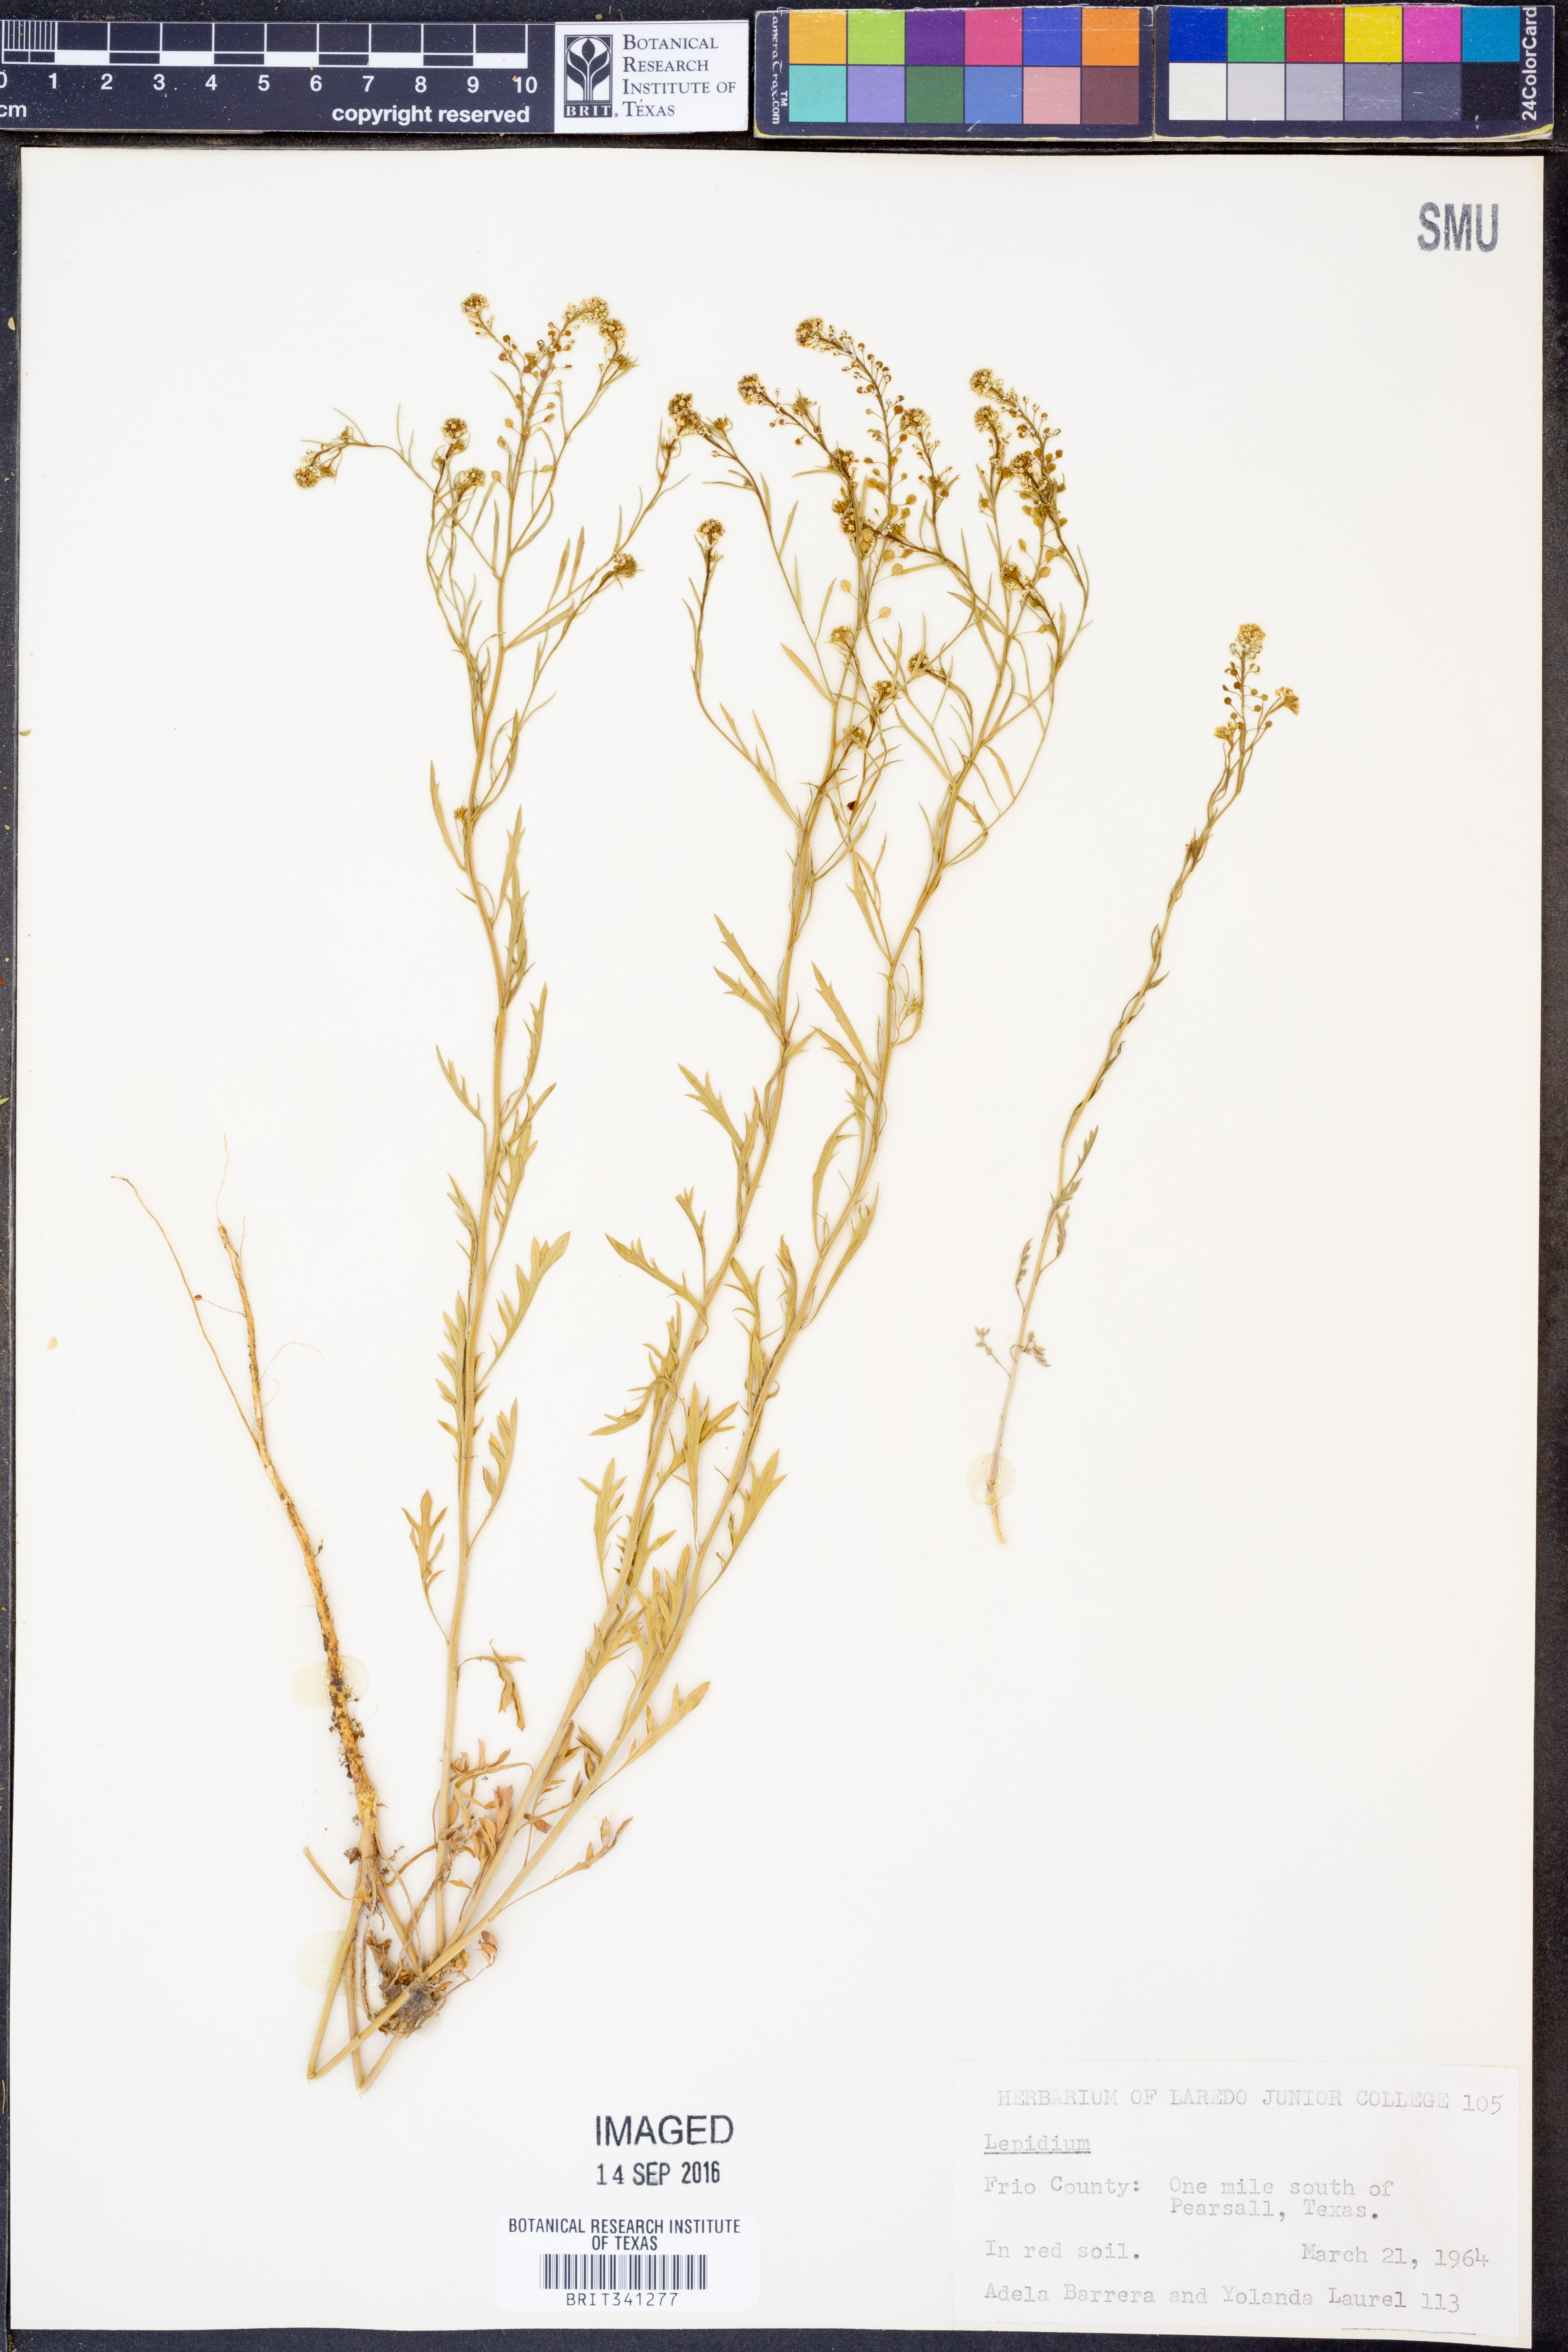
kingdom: Plantae
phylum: Tracheophyta
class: Magnoliopsida
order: Brassicales
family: Brassicaceae
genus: Lepidium
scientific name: Lepidium
